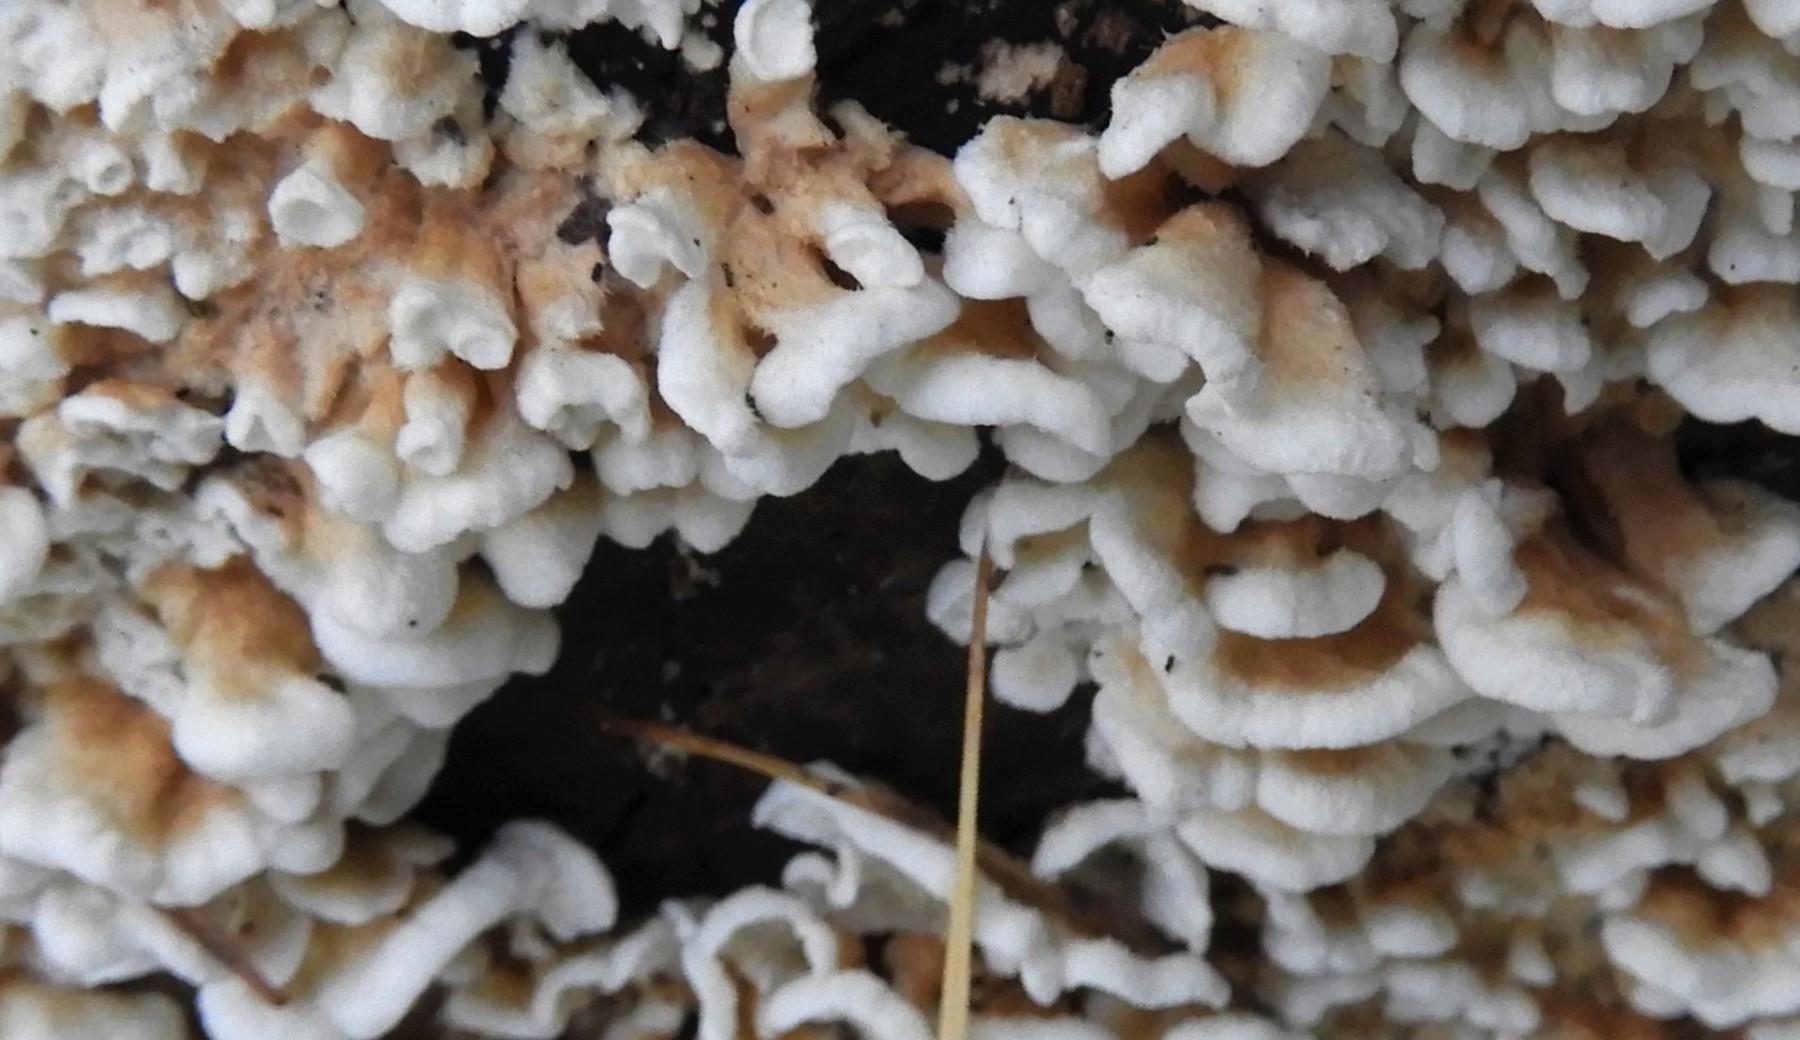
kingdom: Fungi
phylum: Basidiomycota
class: Agaricomycetes
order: Amylocorticiales
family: Amylocorticiaceae
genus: Plicaturopsis
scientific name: Plicaturopsis crispa
